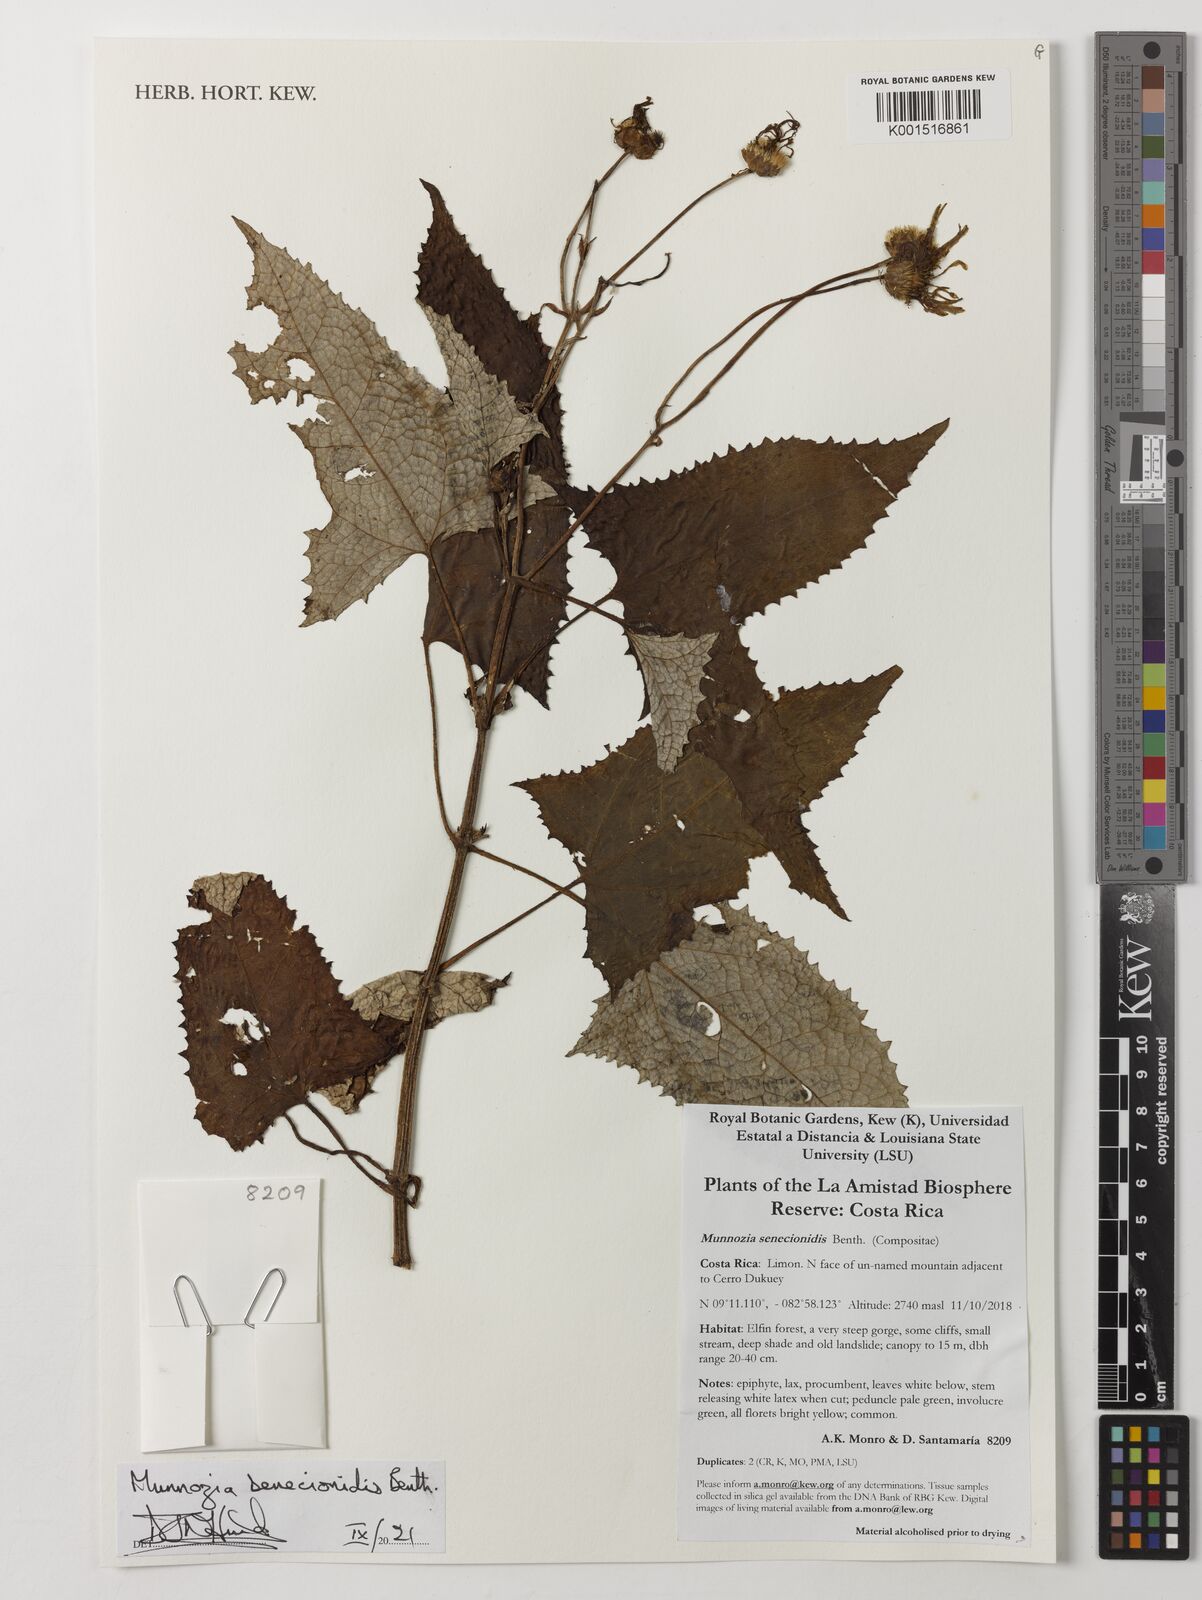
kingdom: Plantae
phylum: Tracheophyta
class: Magnoliopsida
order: Asterales
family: Asteraceae
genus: Munnozia
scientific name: Munnozia senecionidis
